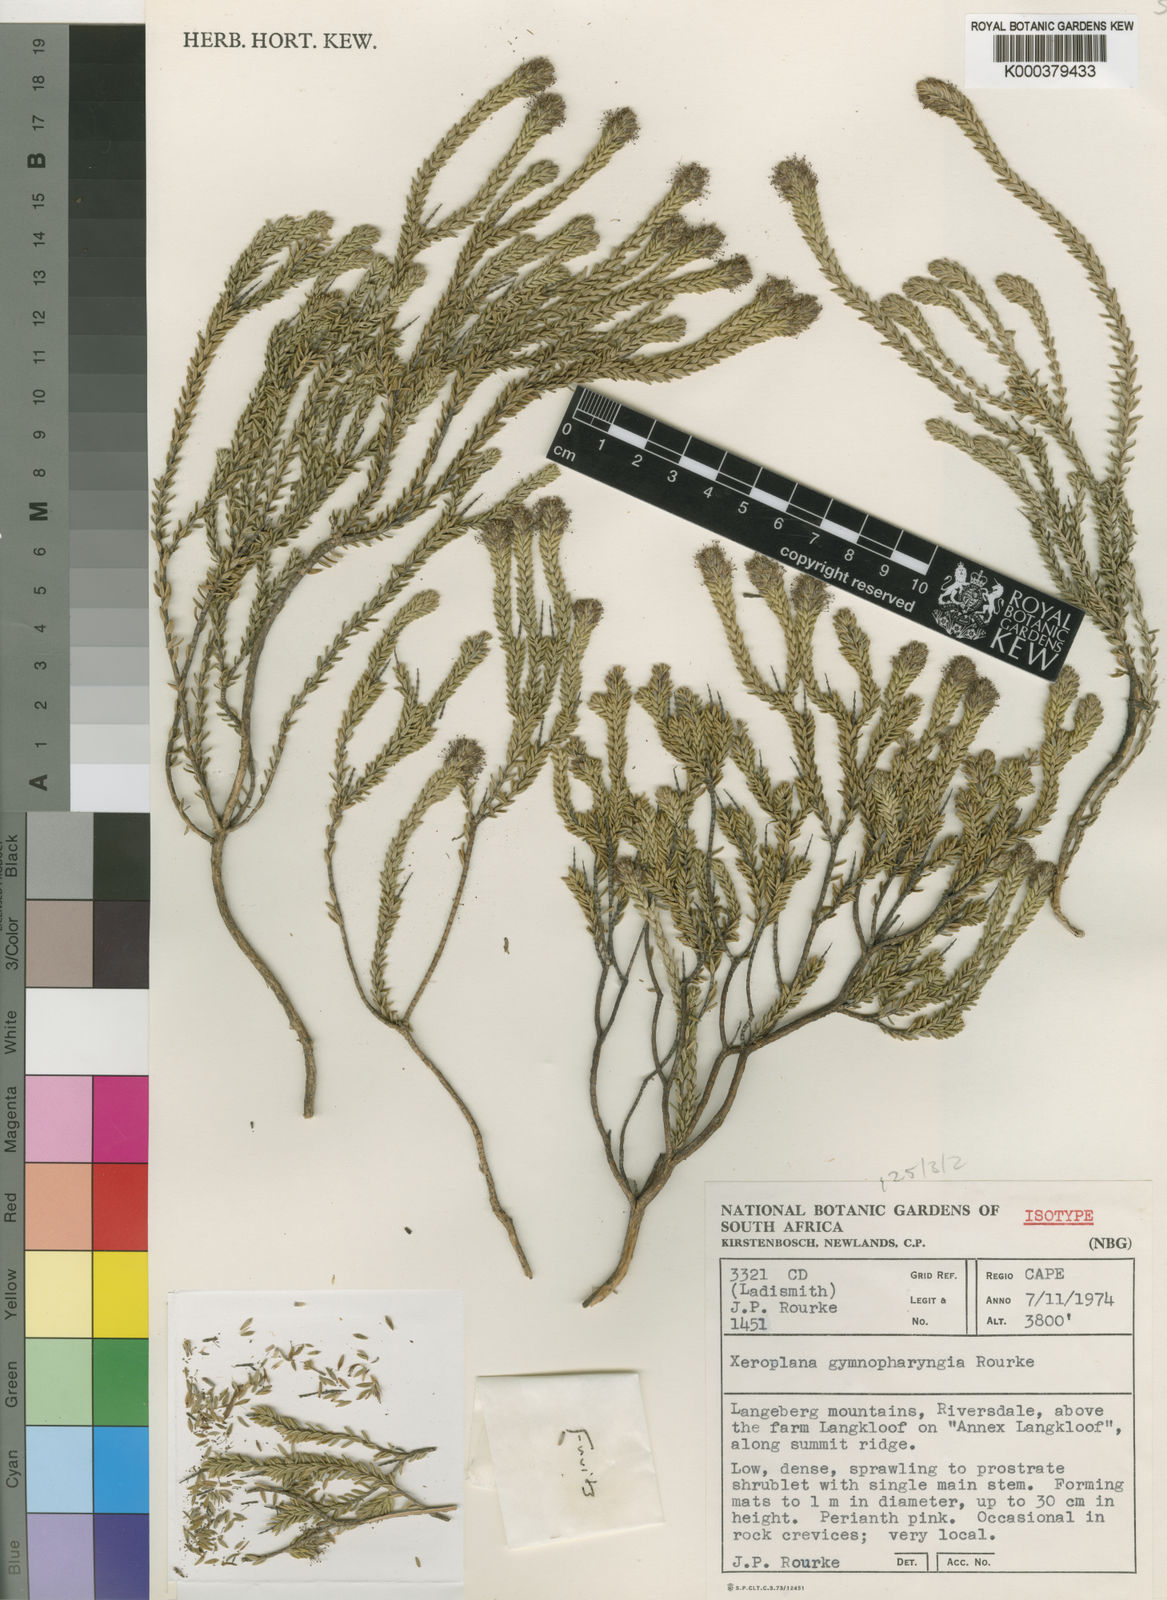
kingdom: Plantae
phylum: Tracheophyta
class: Magnoliopsida
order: Lamiales
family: Stilbaceae
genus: Stilbe
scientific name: Stilbe gymnopharyngia
